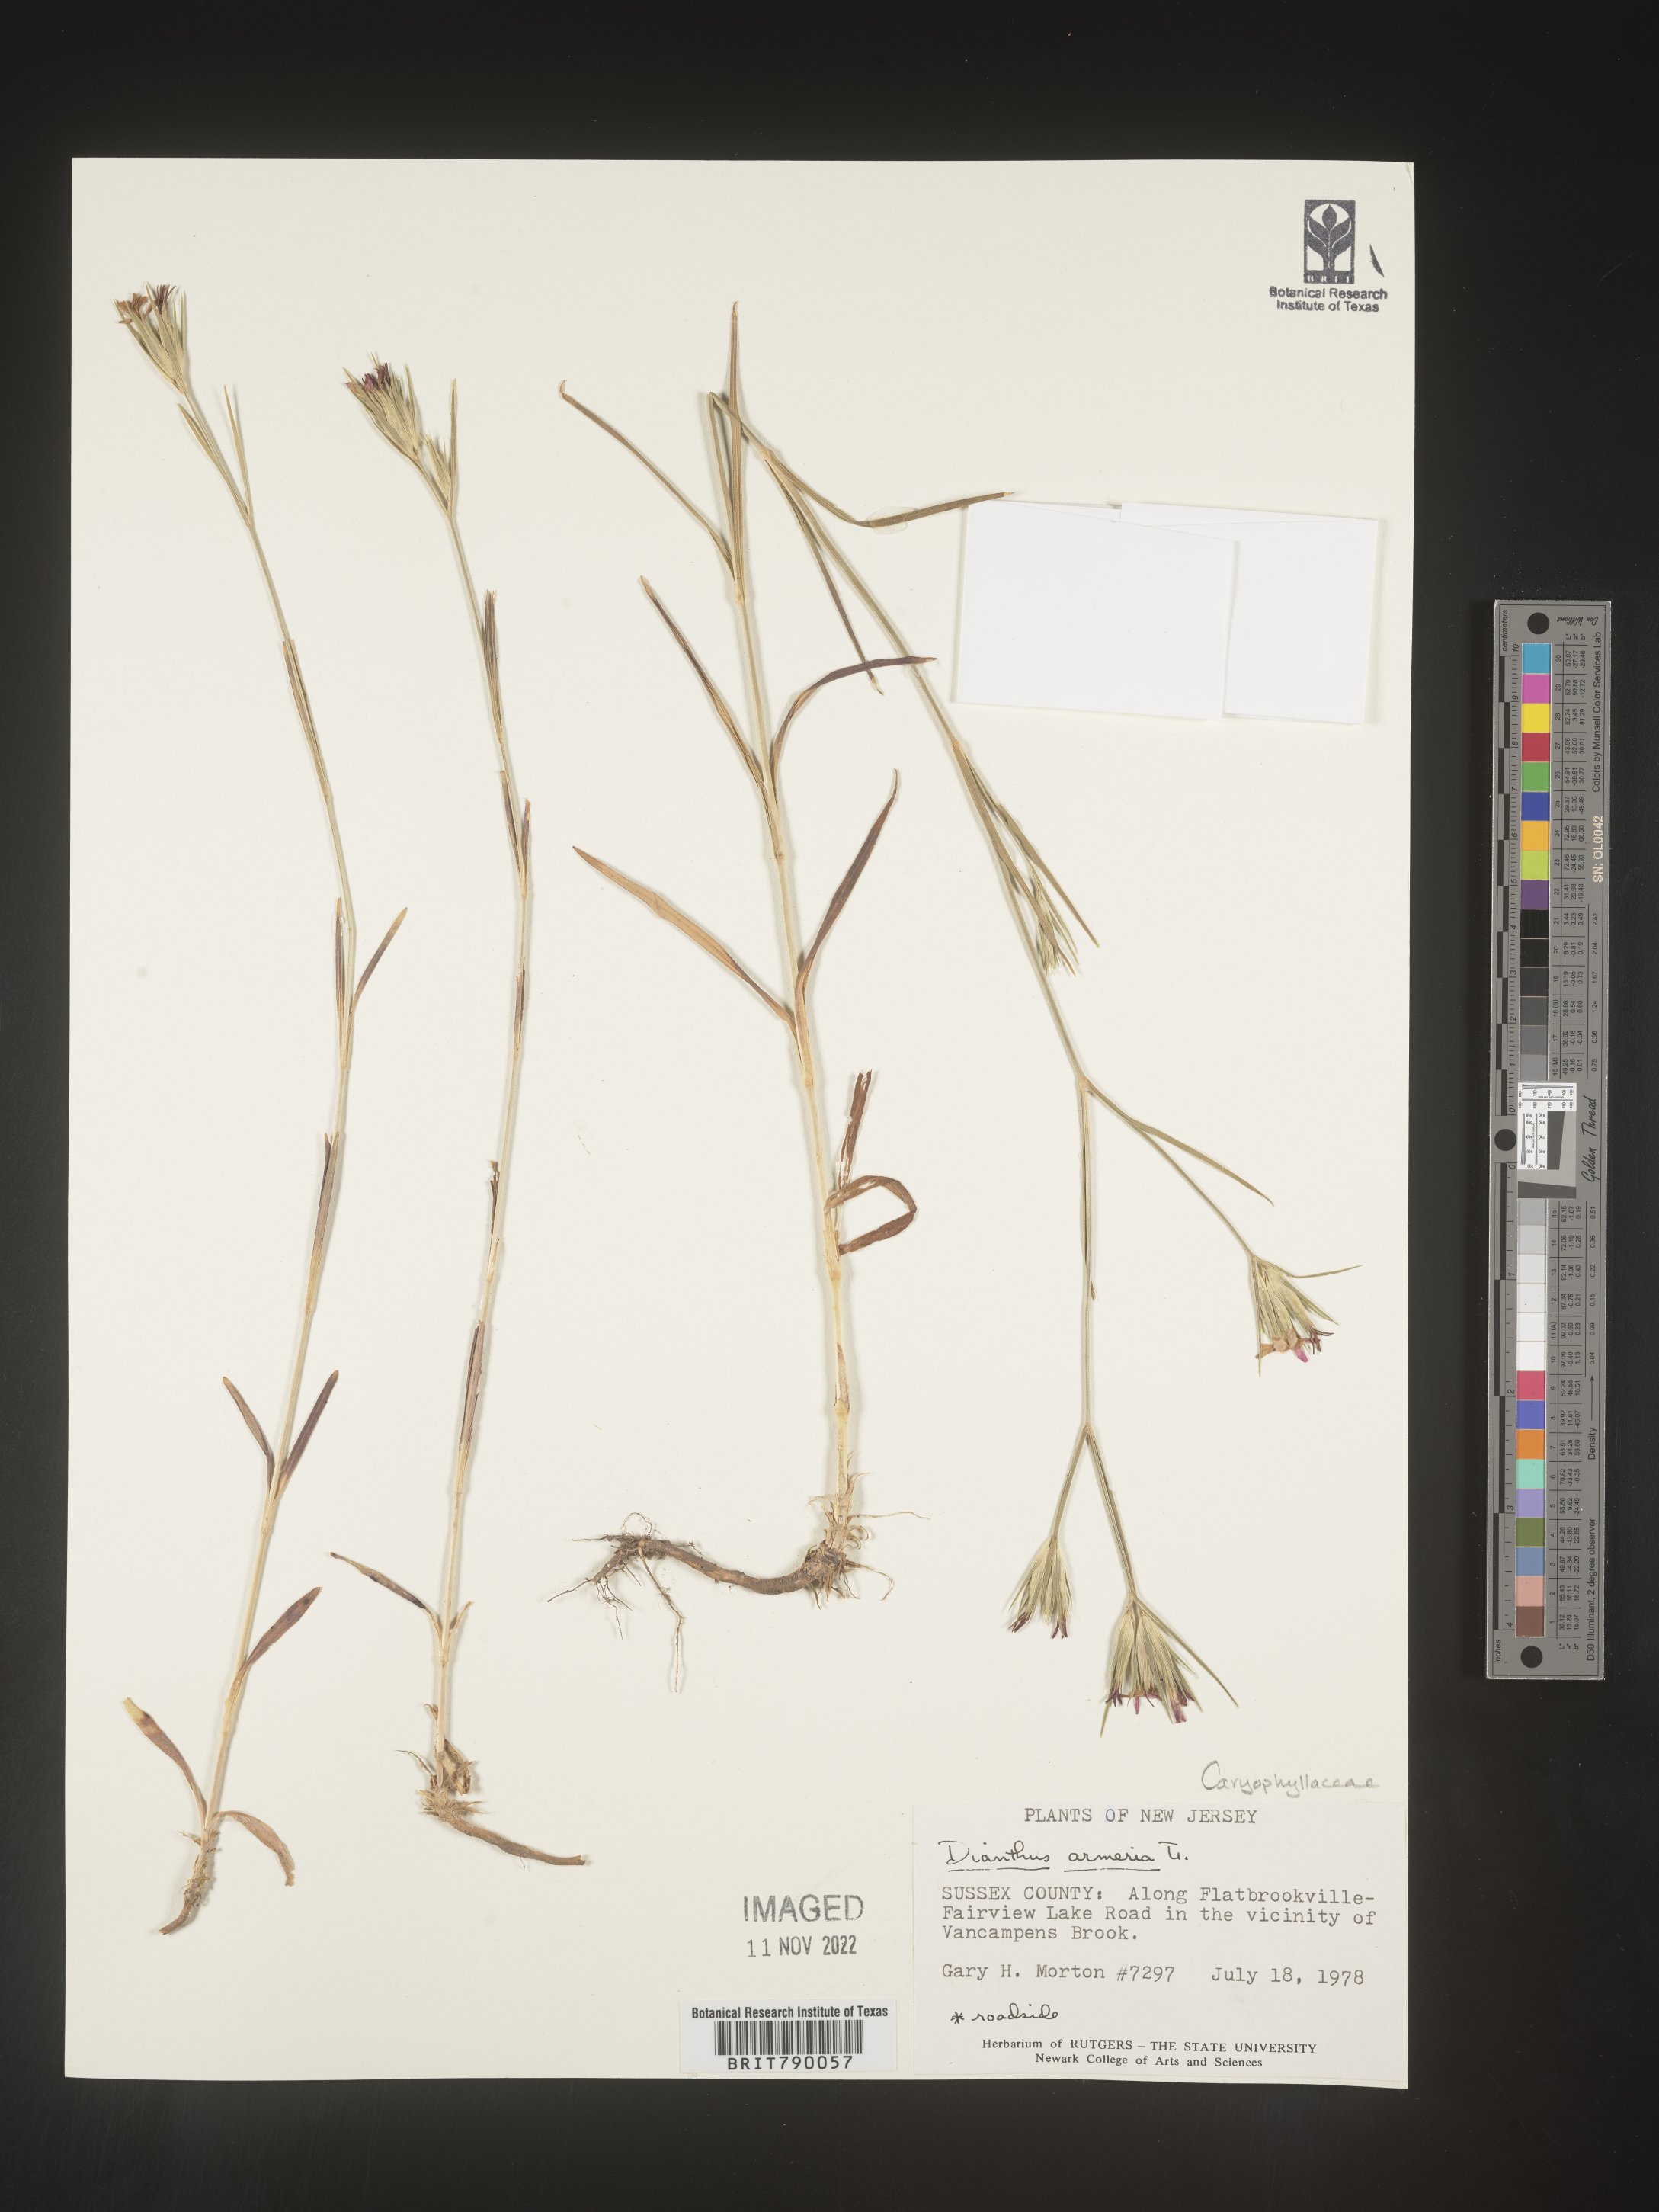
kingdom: Plantae
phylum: Tracheophyta
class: Magnoliopsida
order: Caryophyllales
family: Caryophyllaceae
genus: Dianthus
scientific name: Dianthus armeria
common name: Deptford pink
